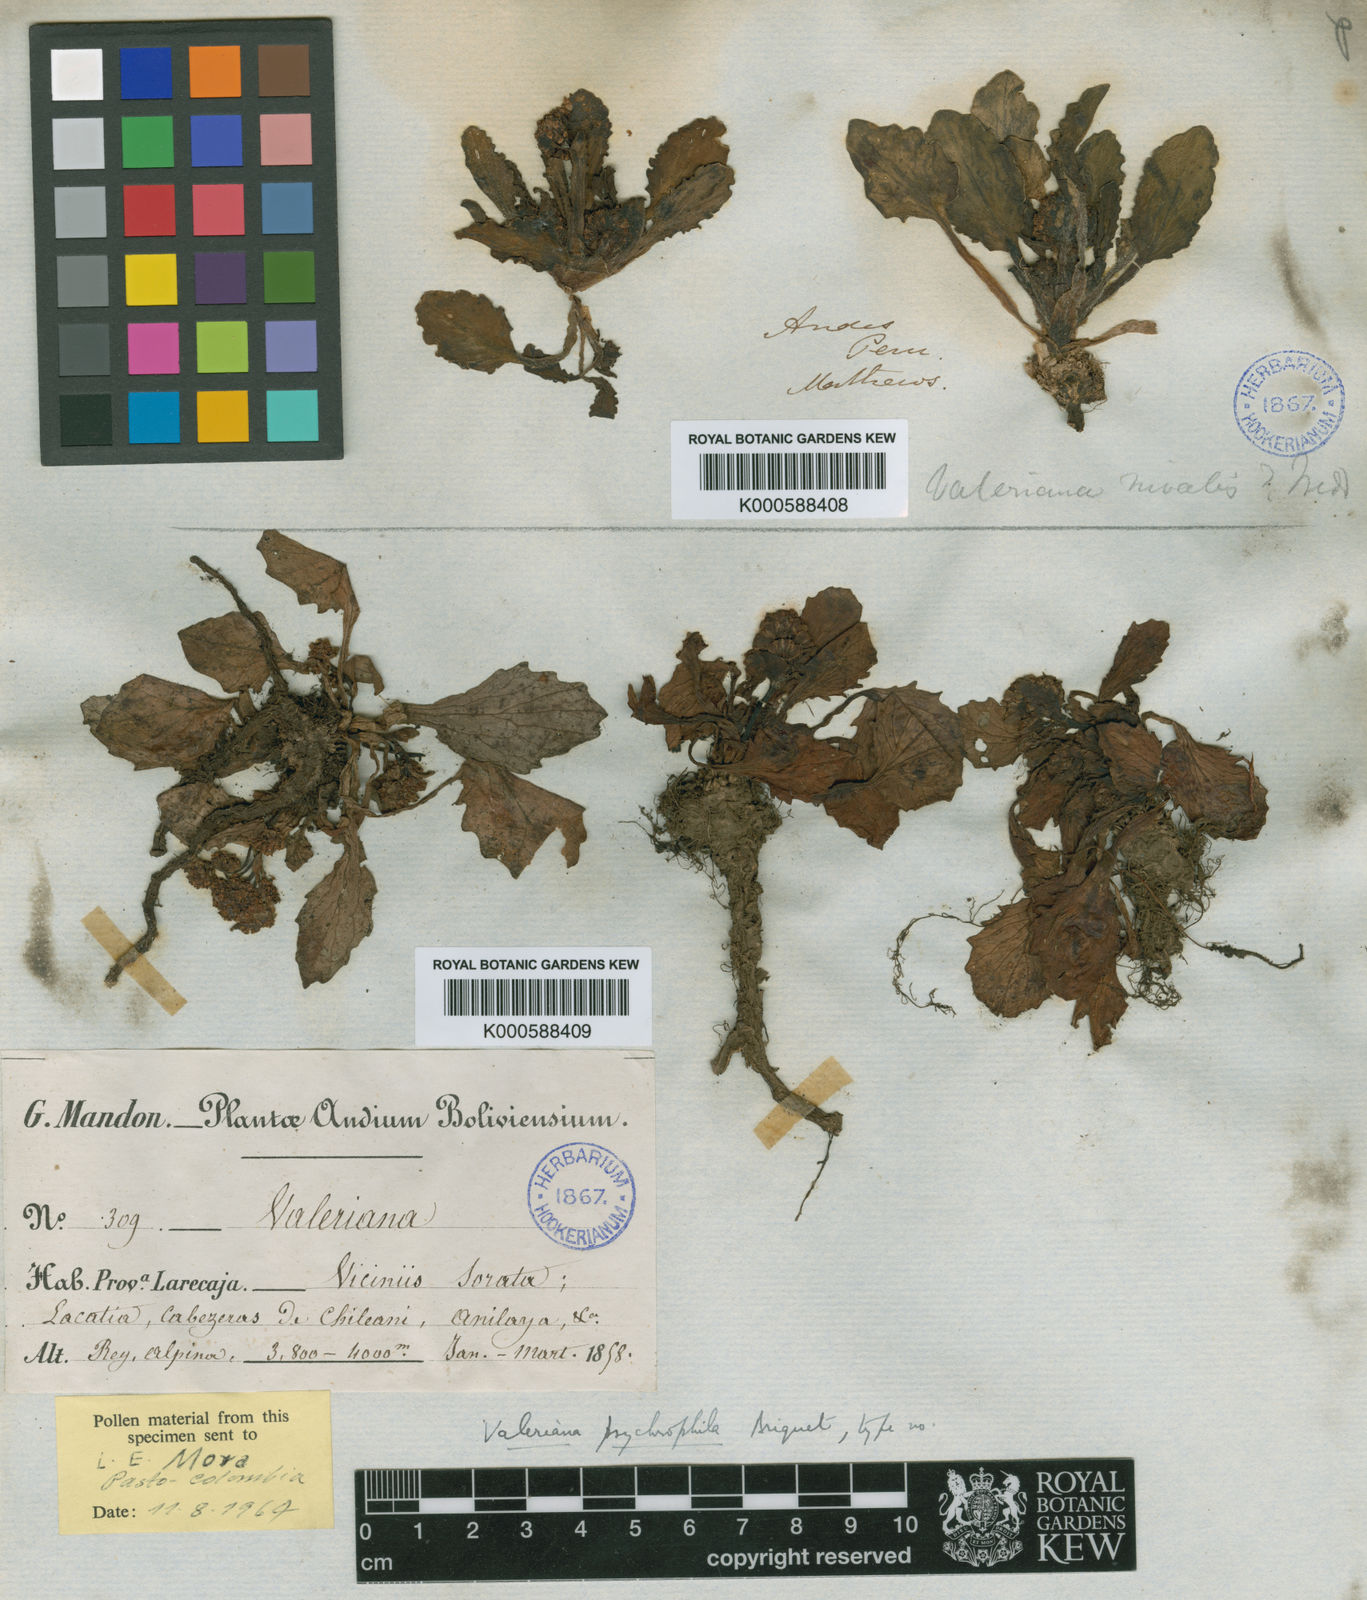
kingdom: Plantae
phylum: Tracheophyta
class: Magnoliopsida
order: Dipsacales
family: Caprifoliaceae
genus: Valeriana
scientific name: Valeriana psychrophila
